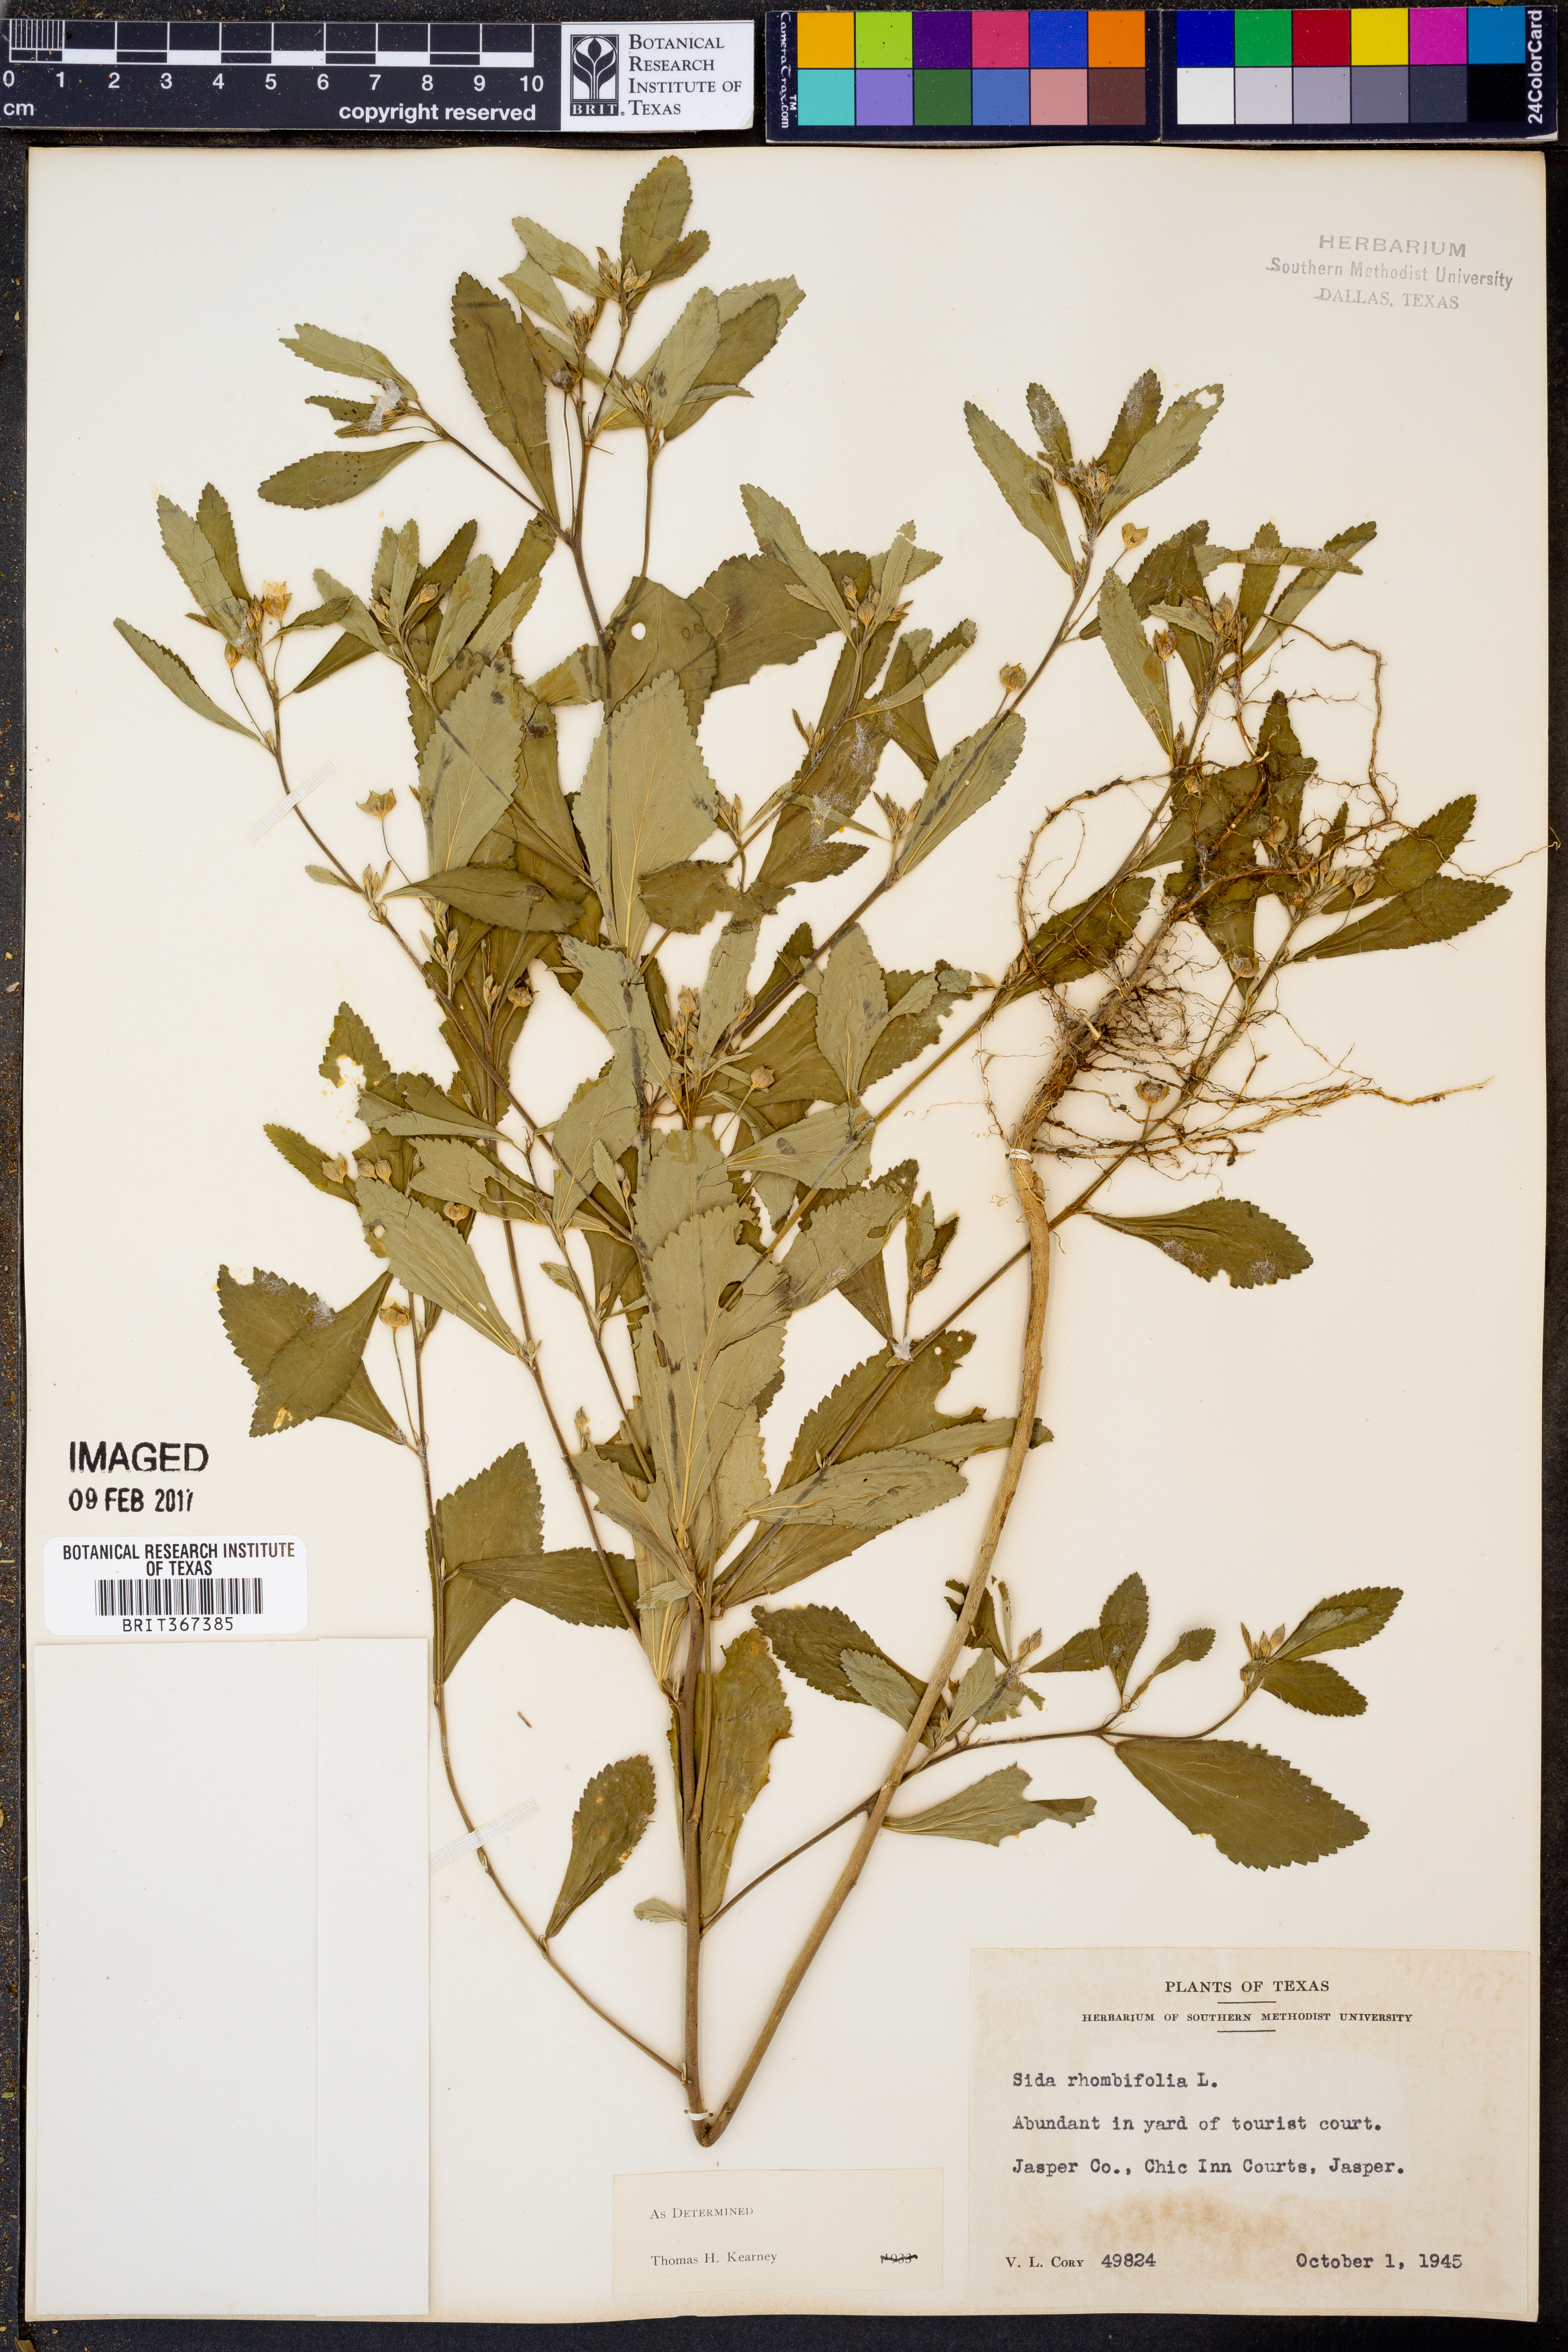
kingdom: Plantae
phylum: Tracheophyta
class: Magnoliopsida
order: Malvales
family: Malvaceae
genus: Sida
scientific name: Sida rhombifolia
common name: Queensland-hemp
